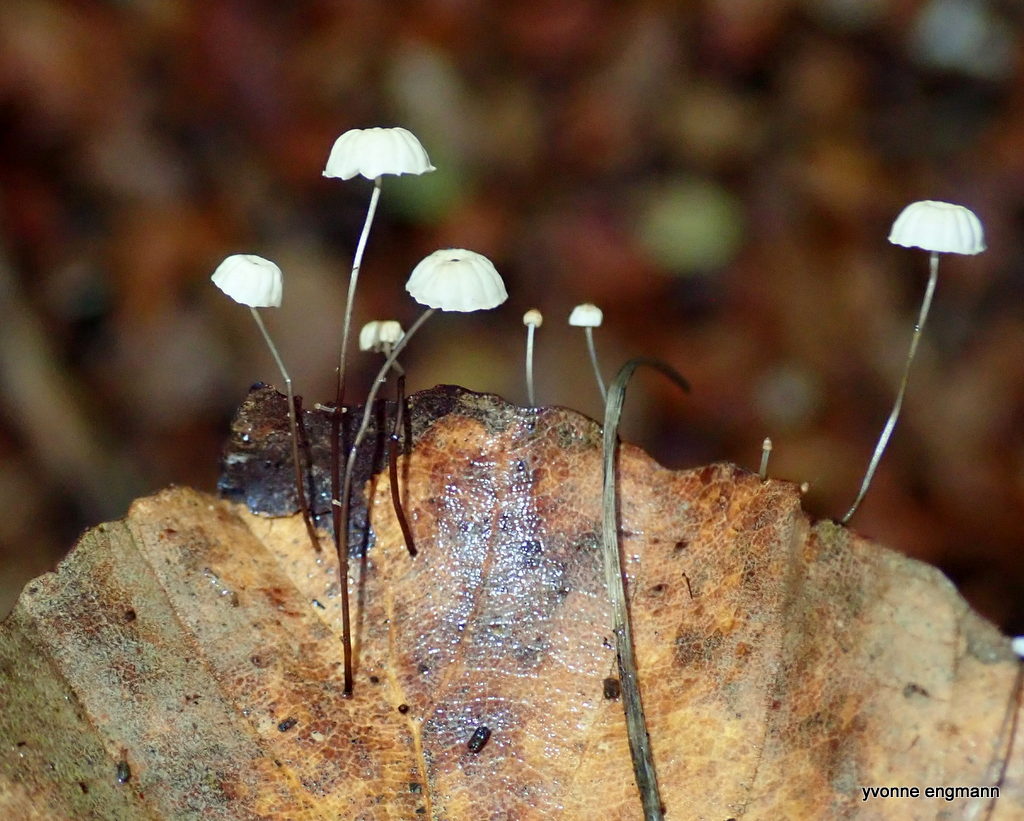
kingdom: Fungi
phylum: Basidiomycota
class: Agaricomycetes
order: Agaricales
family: Marasmiaceae
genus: Marasmius
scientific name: Marasmius bulliardii
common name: furet bruskhat
